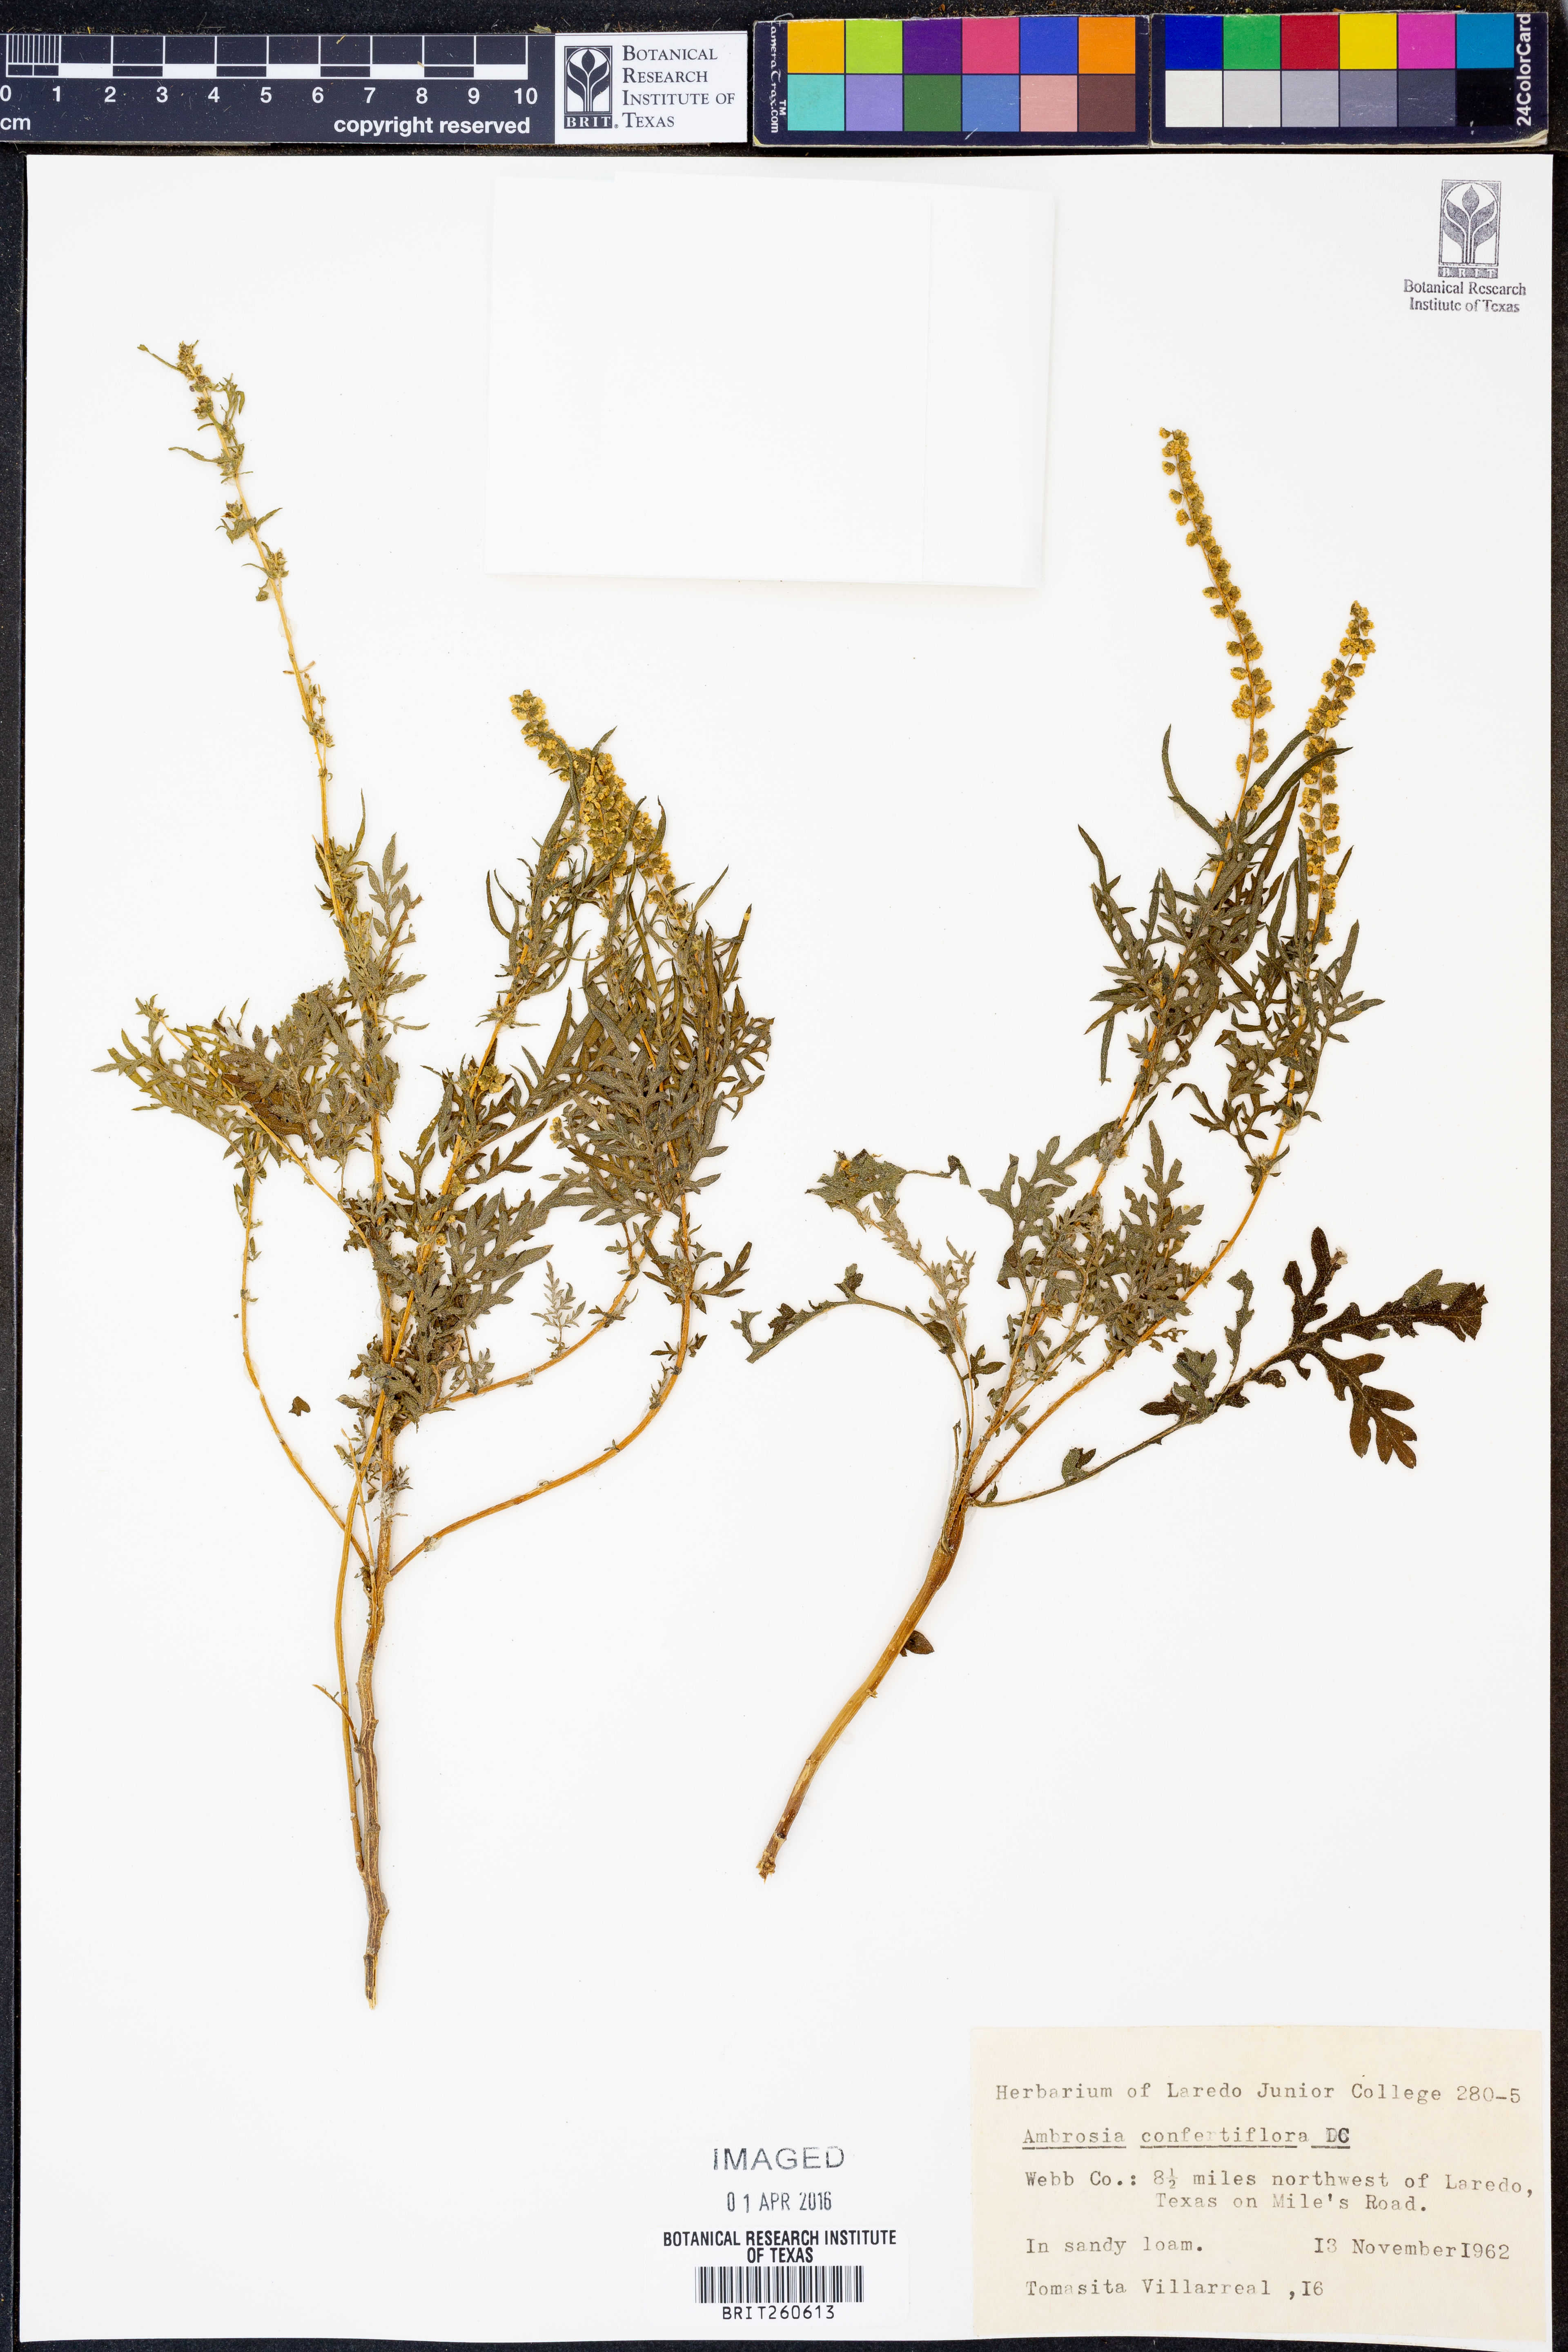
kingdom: Plantae
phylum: Tracheophyta
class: Magnoliopsida
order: Asterales
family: Asteraceae
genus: Ambrosia
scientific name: Ambrosia confertiflora
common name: Bur ragweed
